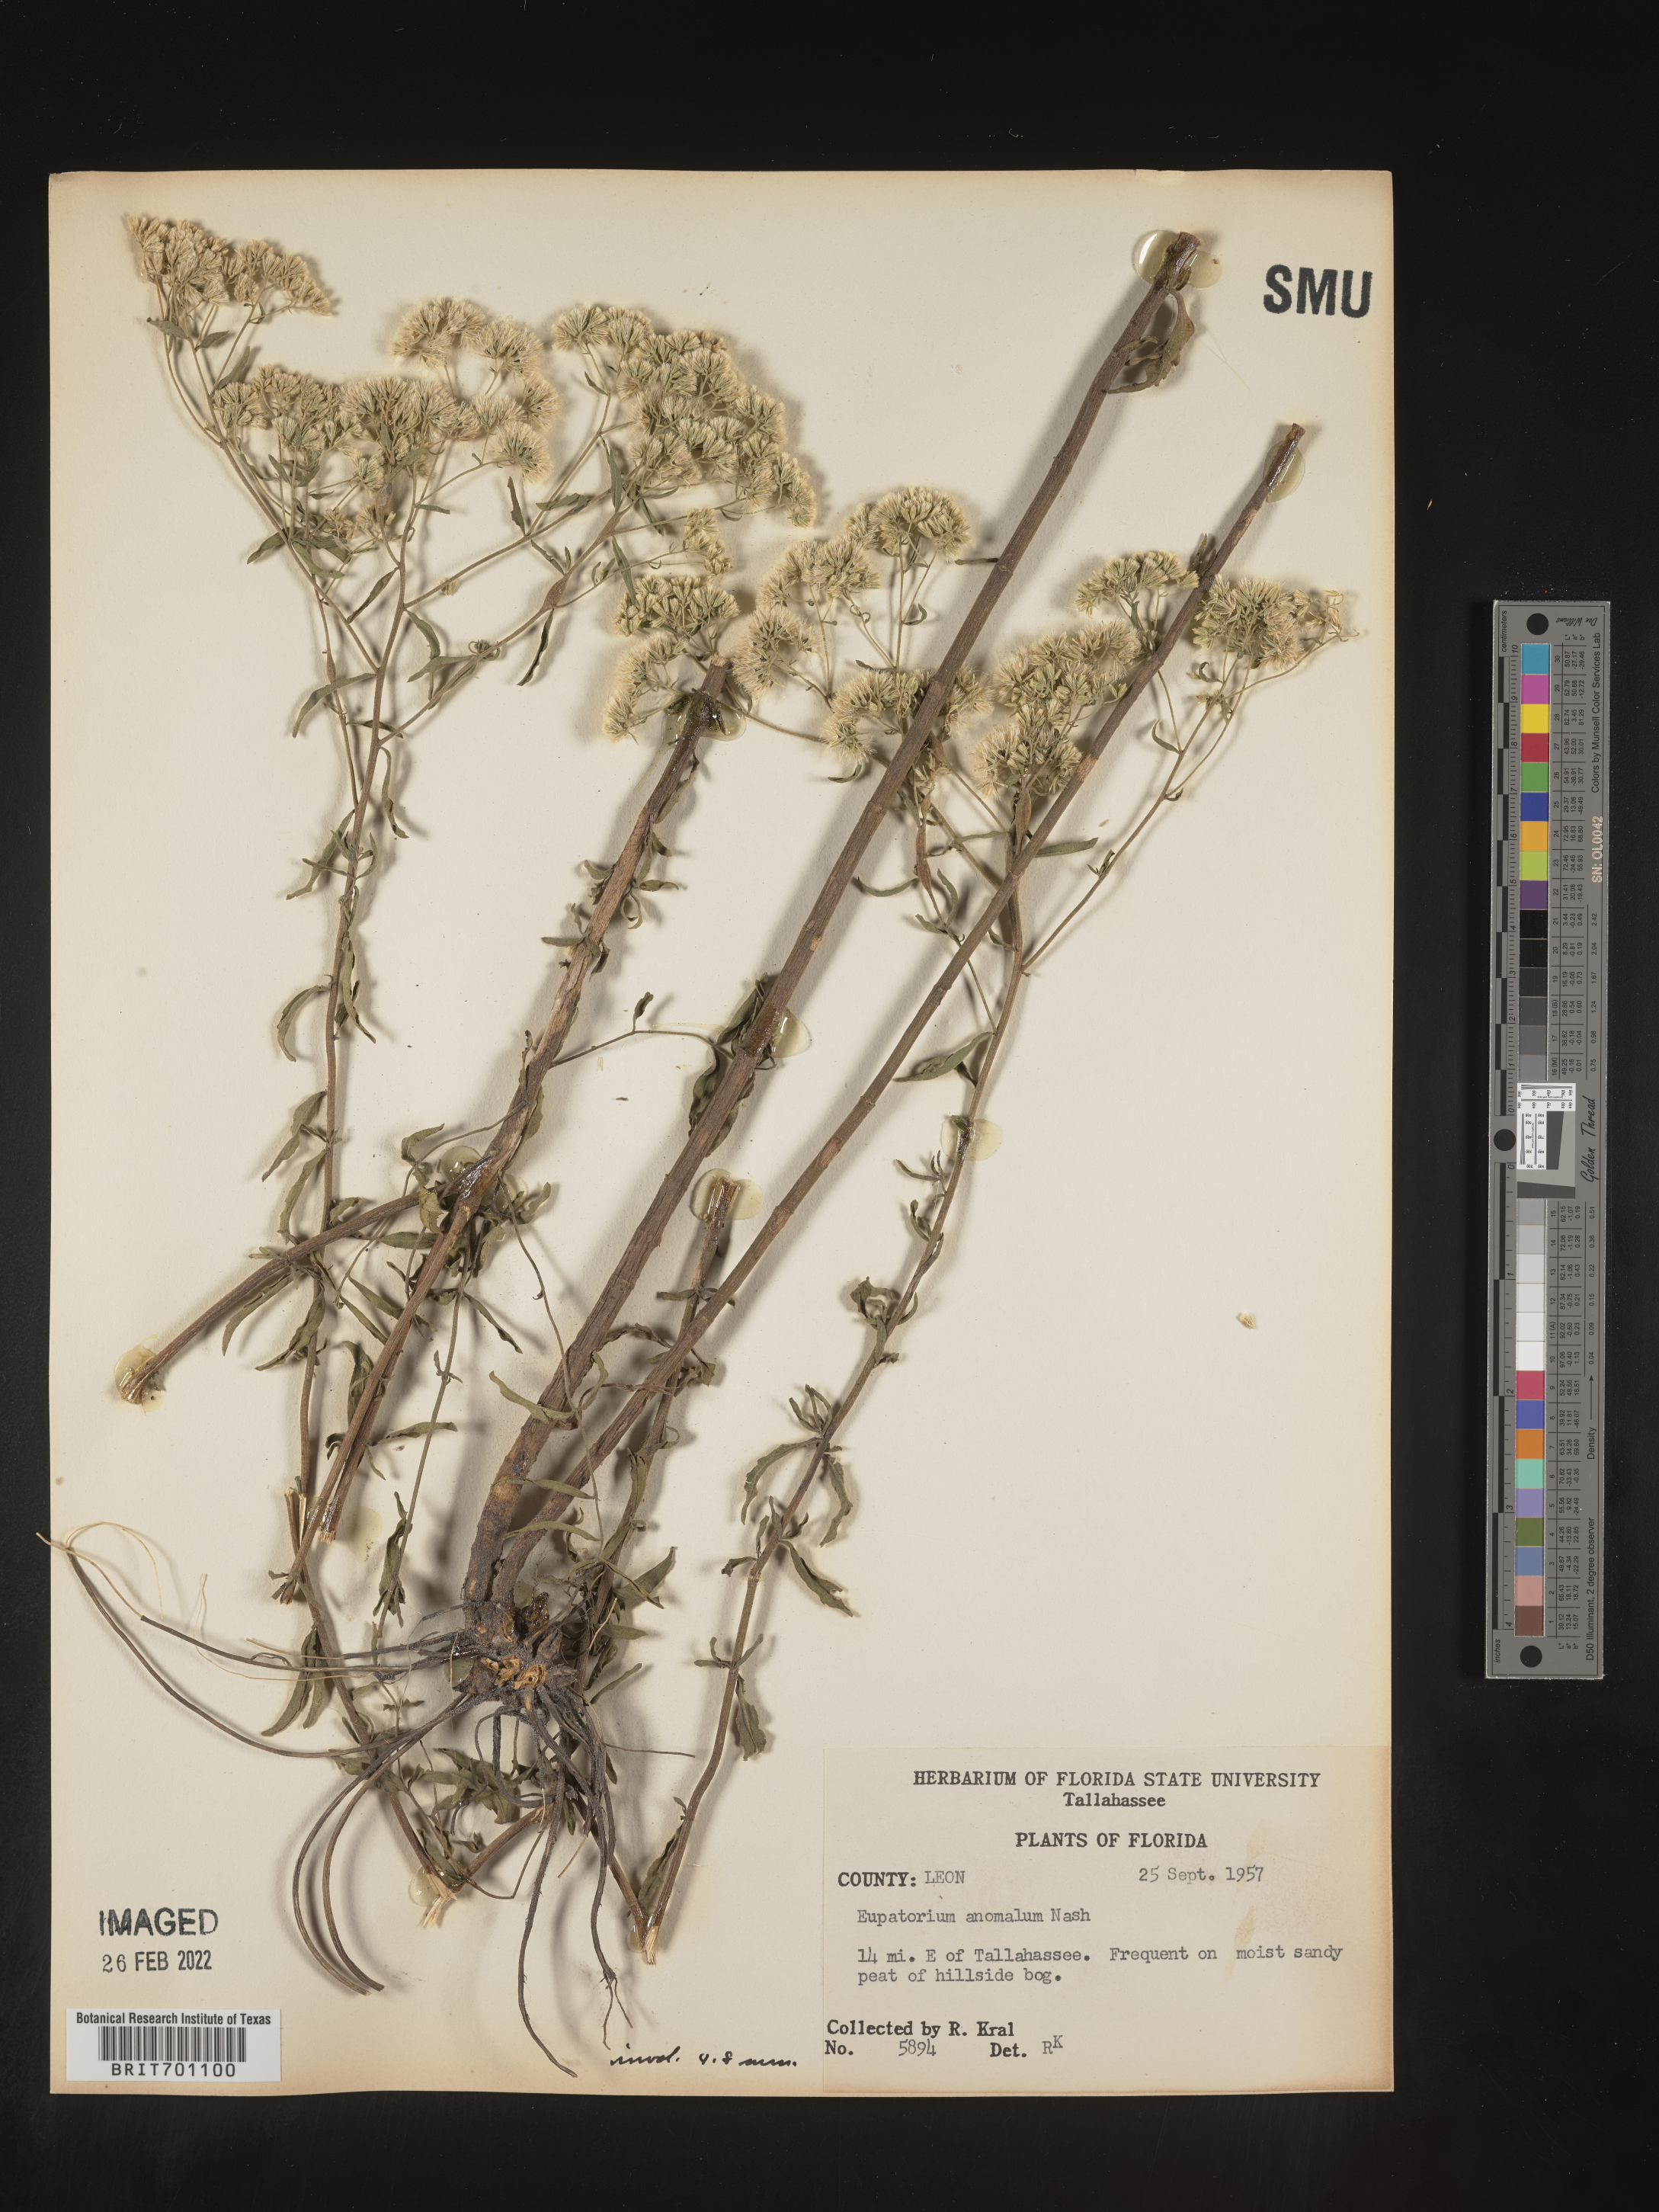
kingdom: Plantae
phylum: Tracheophyta
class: Magnoliopsida
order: Asterales
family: Asteraceae
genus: Eupatorium
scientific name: Eupatorium anomalum
